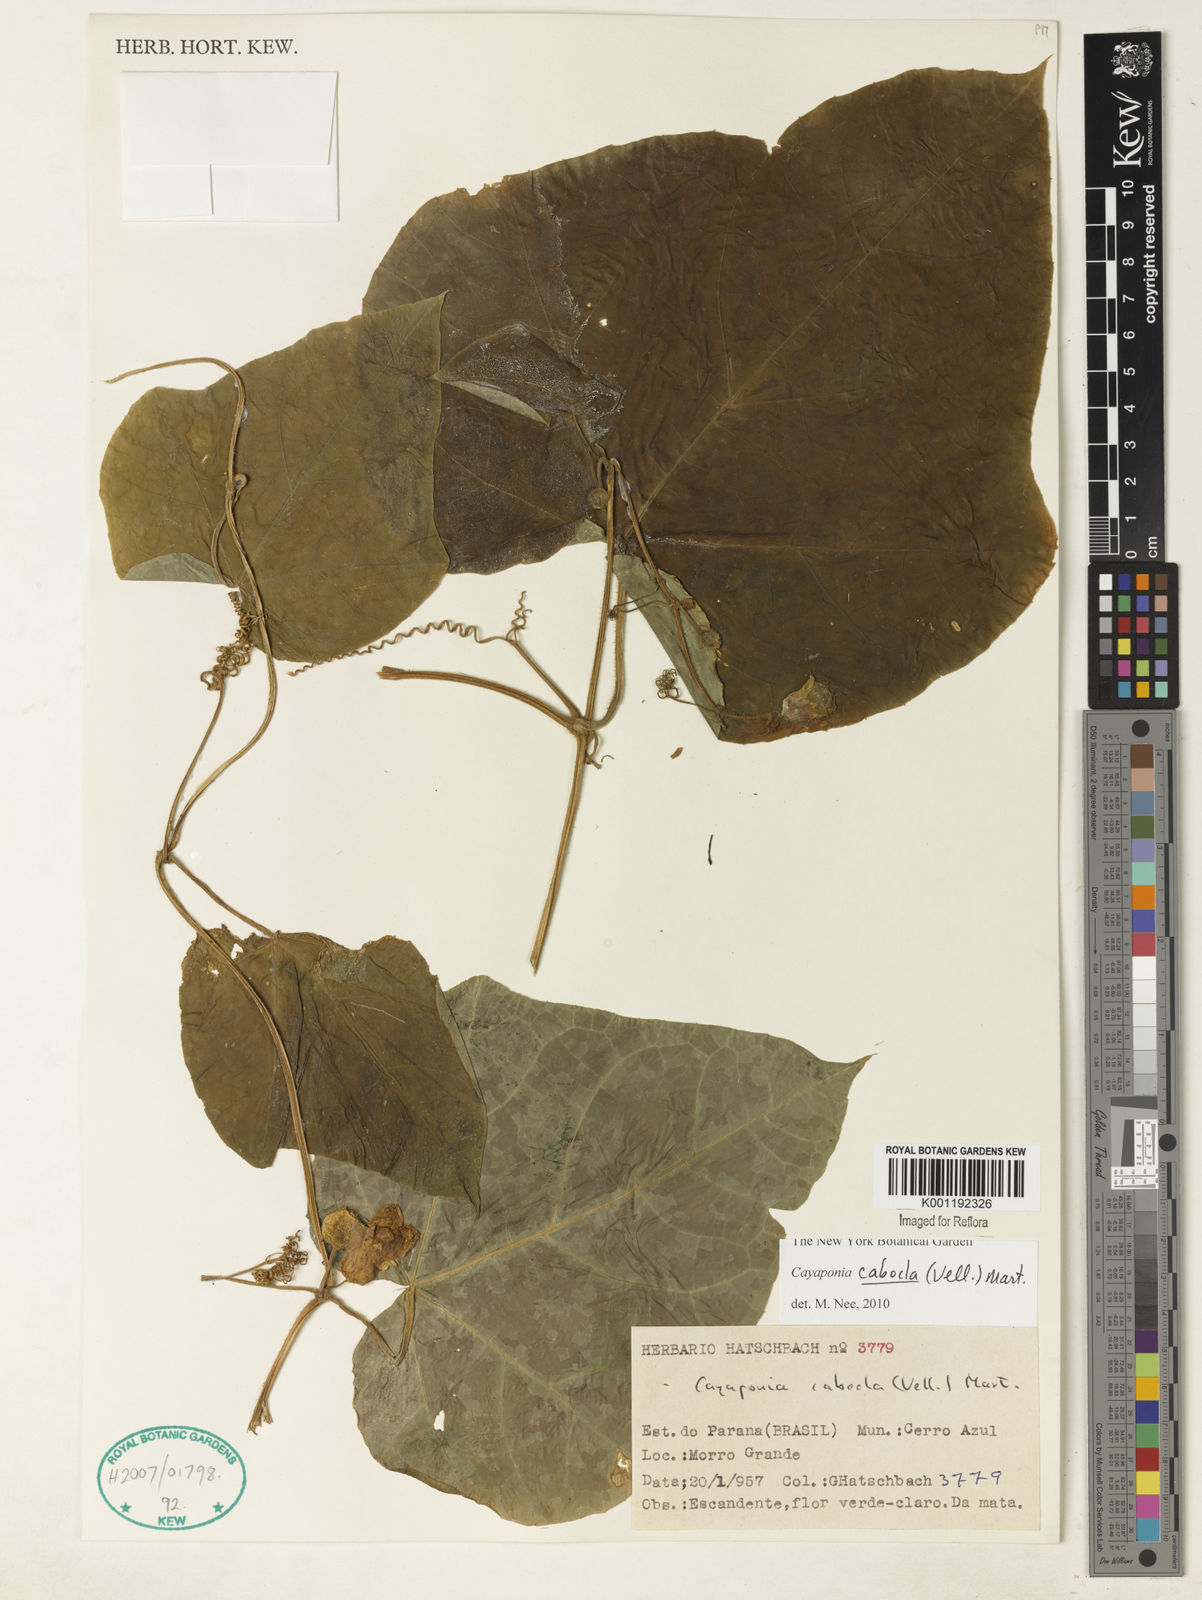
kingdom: Plantae
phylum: Tracheophyta
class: Magnoliopsida
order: Cucurbitales
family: Cucurbitaceae
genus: Cayaponia
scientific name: Cayaponia cabocla
